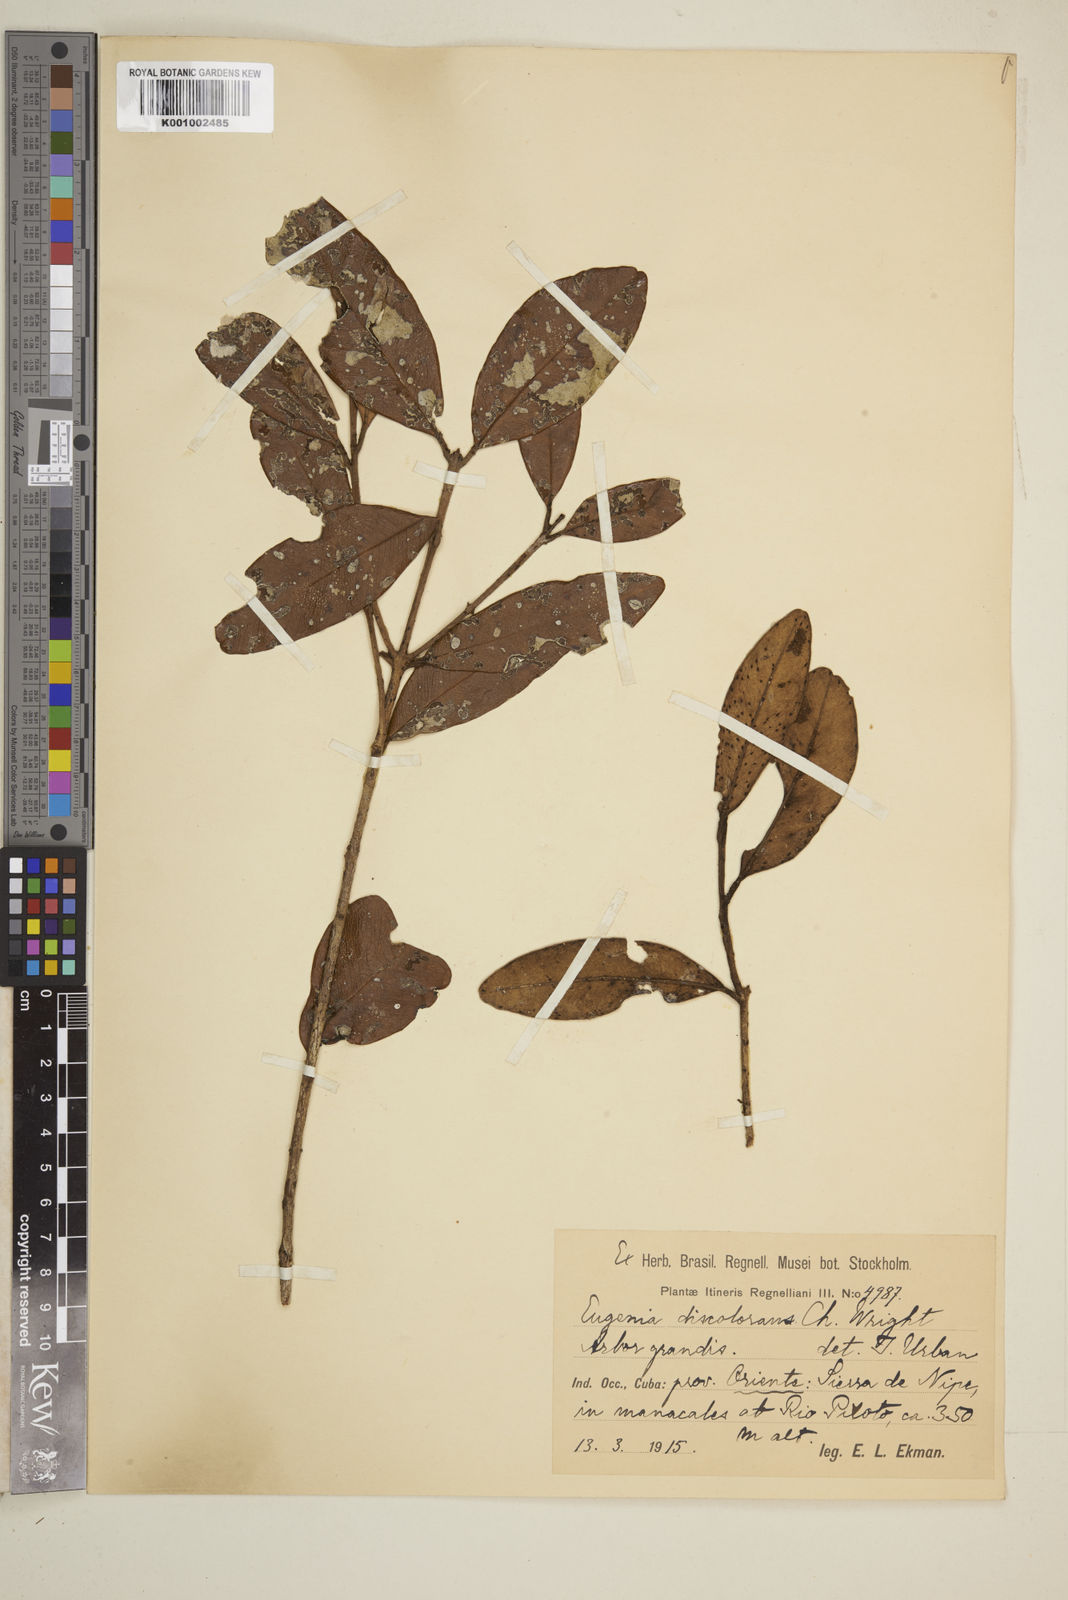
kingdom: Plantae
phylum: Tracheophyta
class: Magnoliopsida
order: Myrtales
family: Myrtaceae
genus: Eugenia
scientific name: Eugenia discolorans
